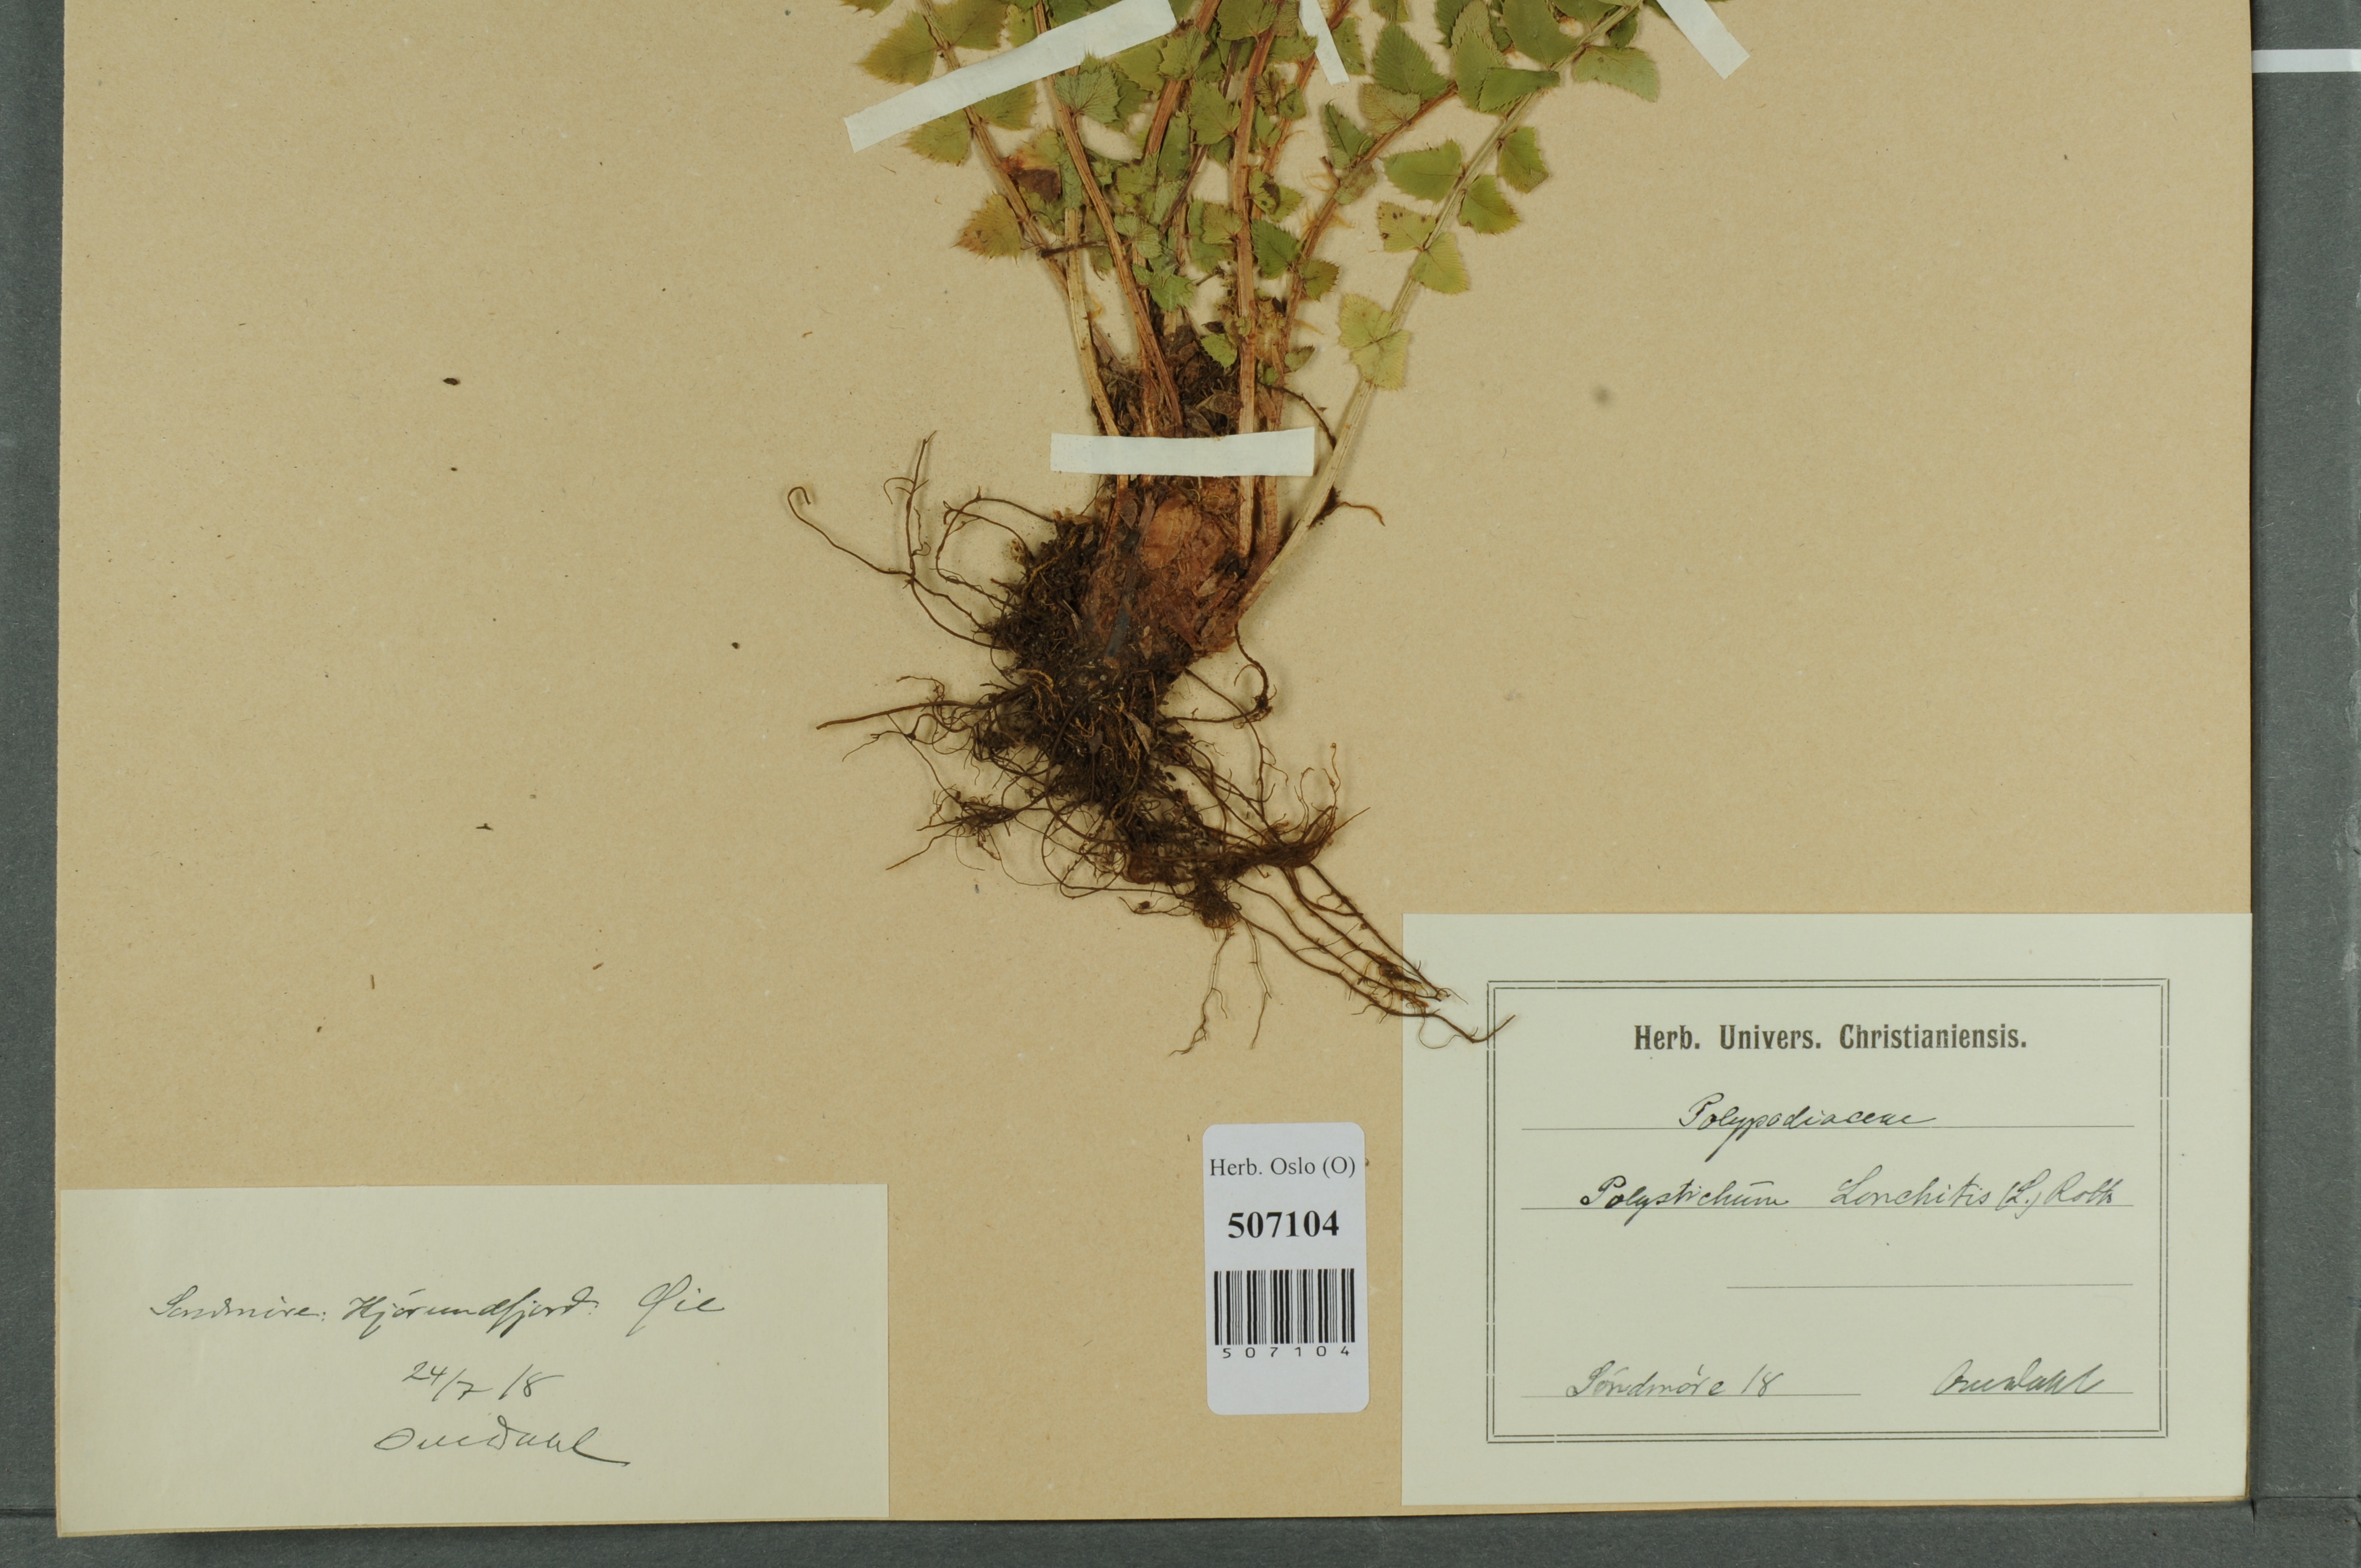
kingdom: Plantae
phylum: Tracheophyta
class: Polypodiopsida
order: Polypodiales
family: Dryopteridaceae
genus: Polystichum
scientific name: Polystichum lonchitis
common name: Holly fern
